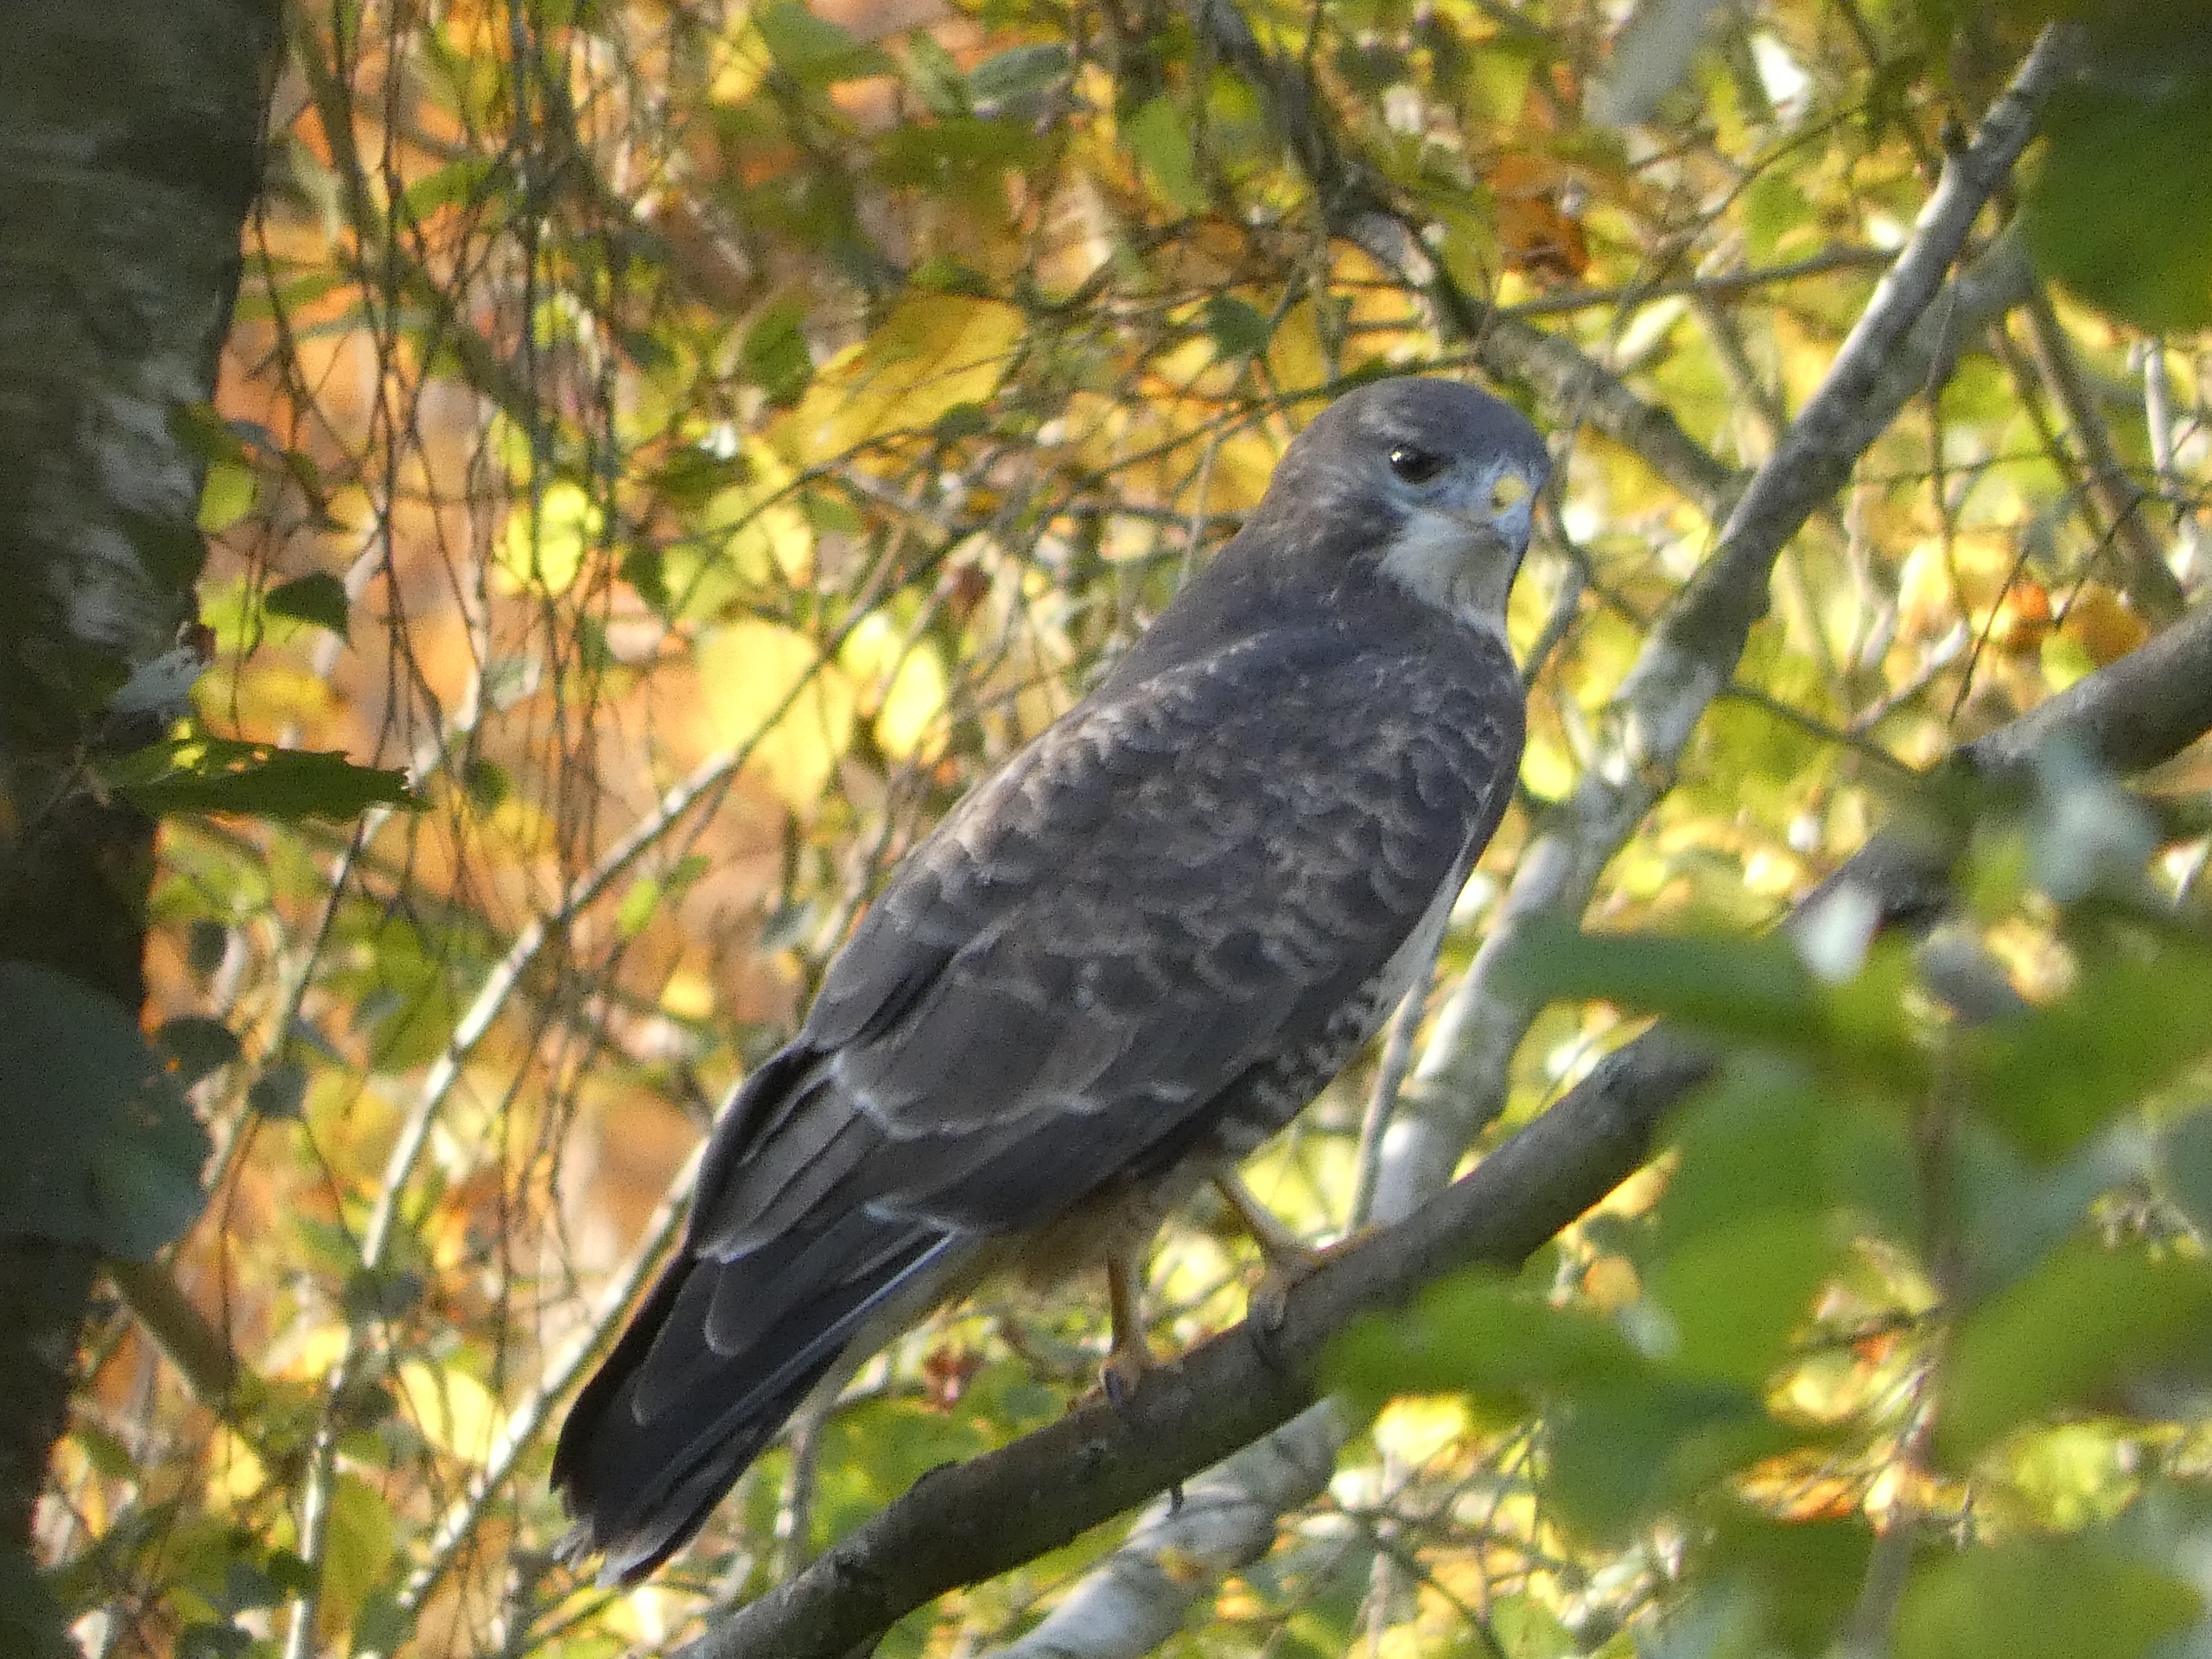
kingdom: Animalia
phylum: Chordata
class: Aves
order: Accipitriformes
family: Accipitridae
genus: Buteo
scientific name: Buteo buteo
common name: Musvåge
